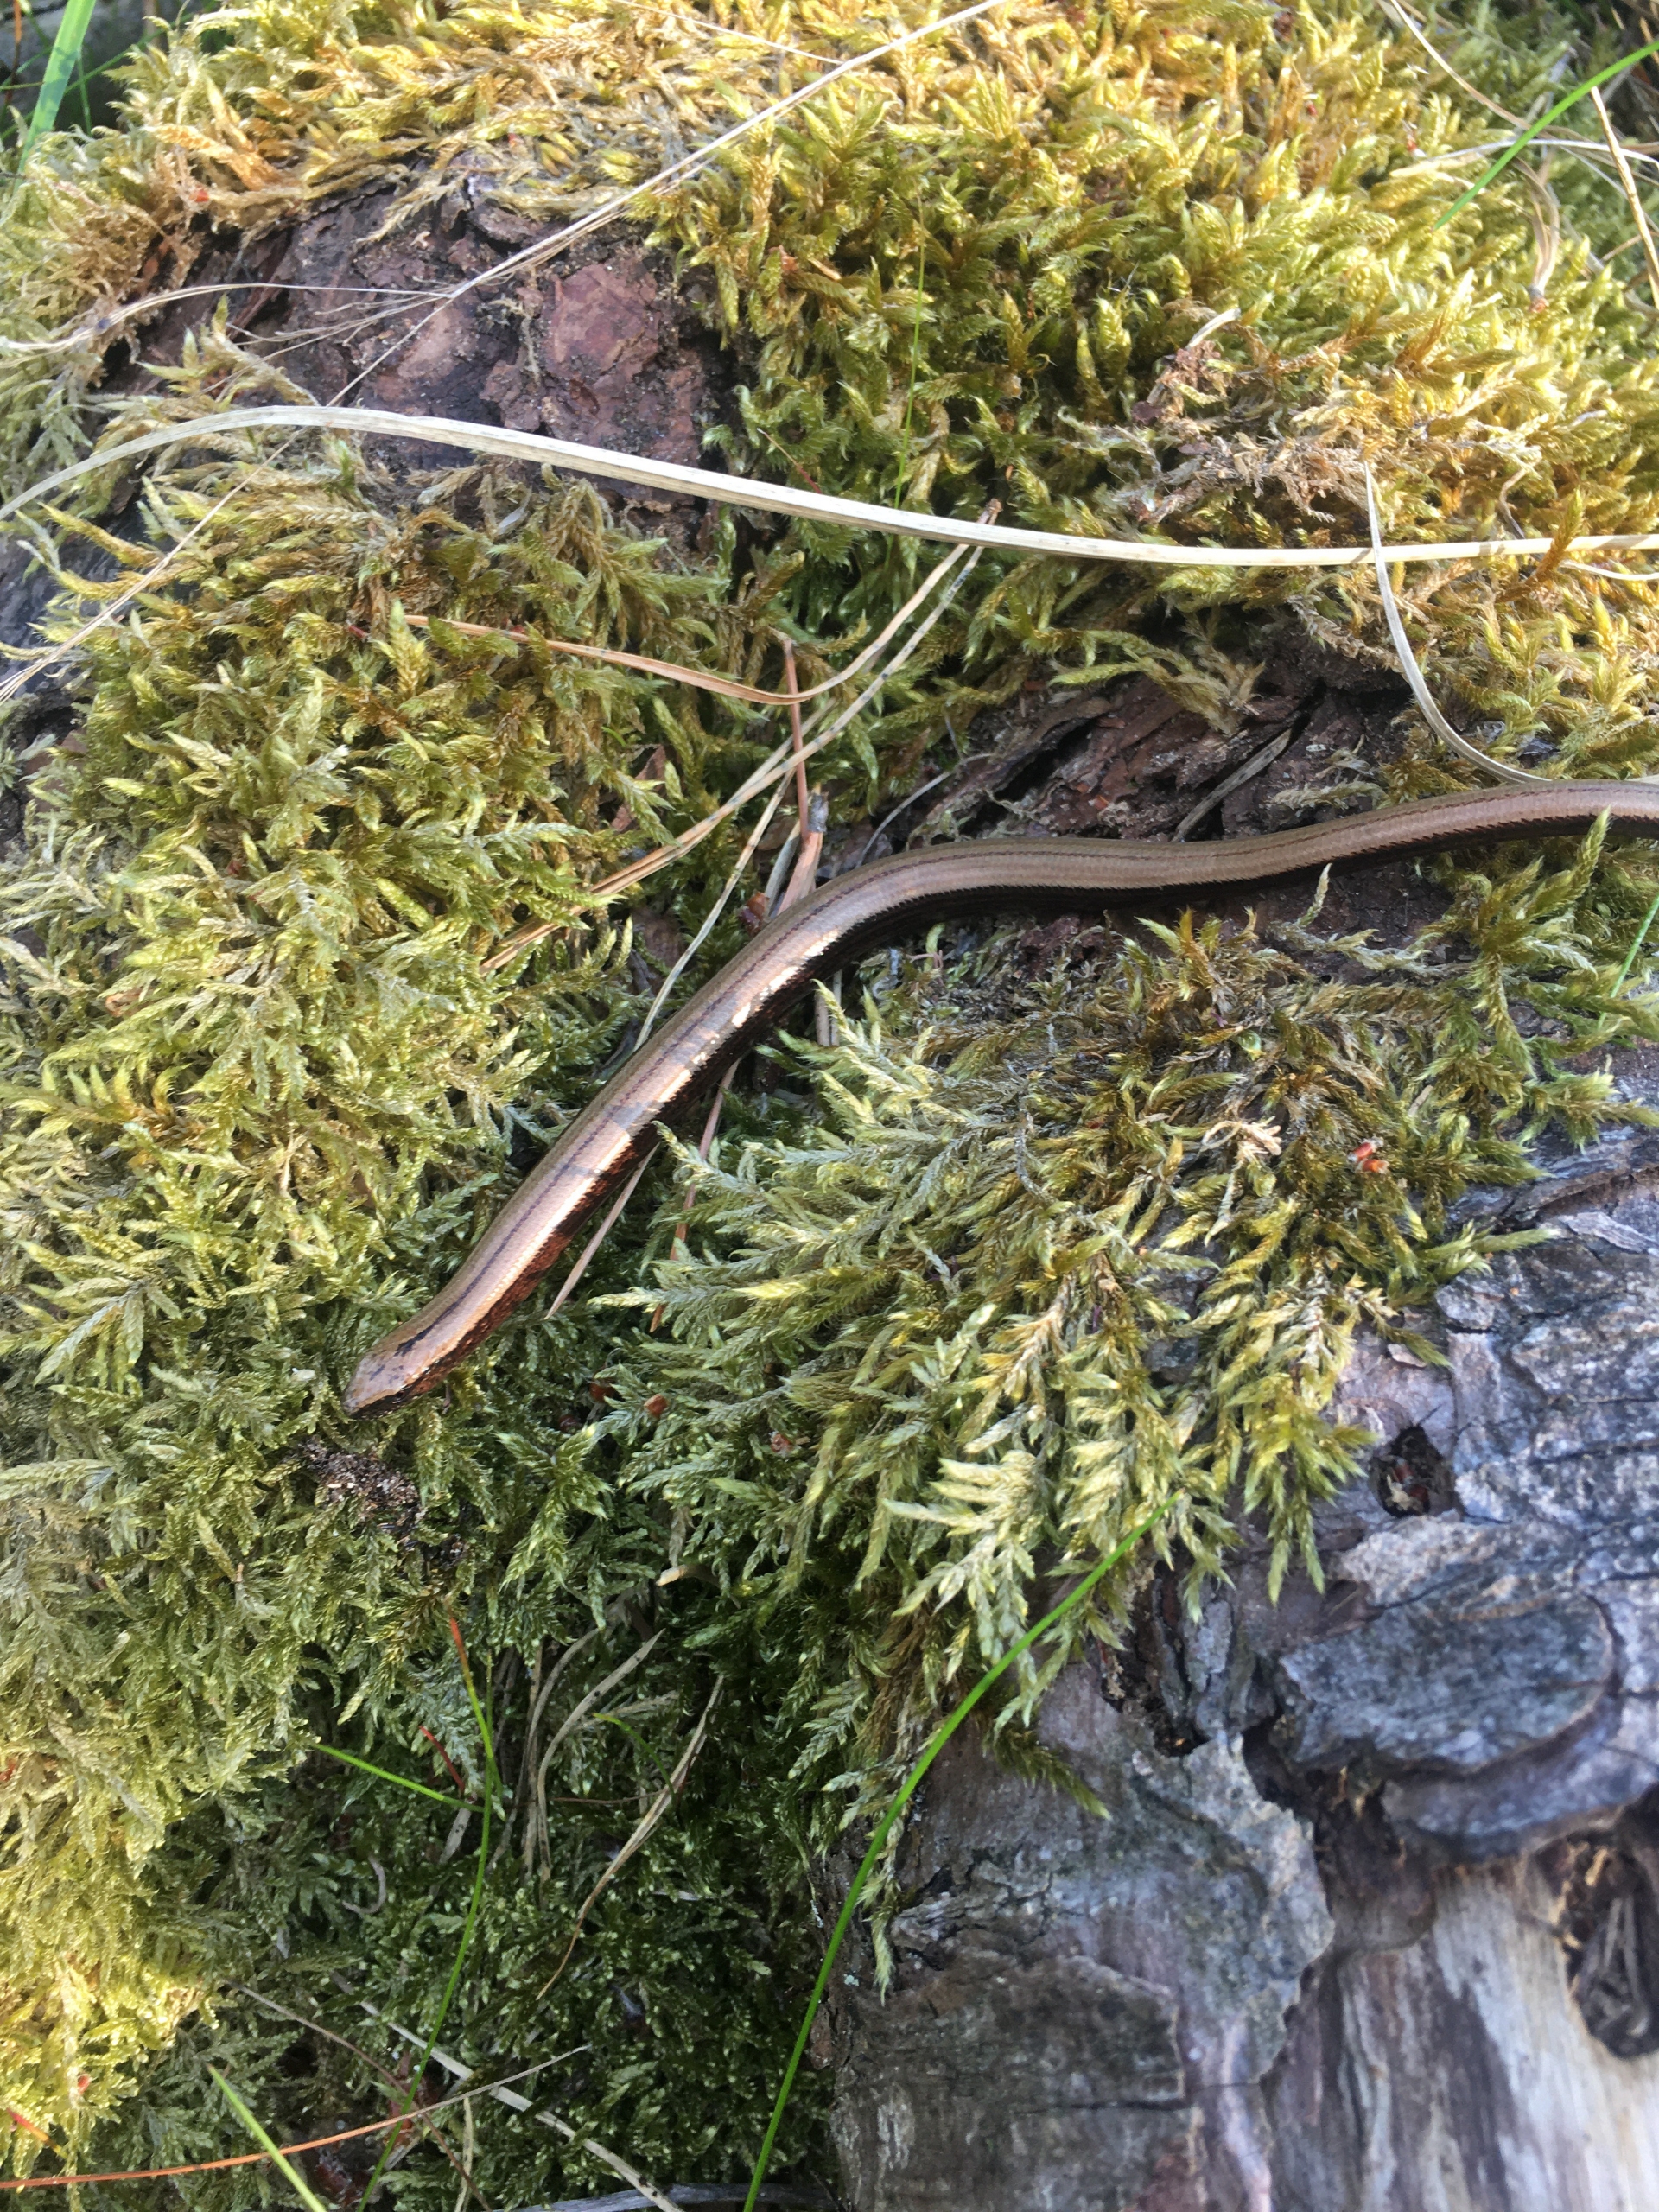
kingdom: Animalia
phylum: Chordata
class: Squamata
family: Anguidae
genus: Anguis
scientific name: Anguis fragilis
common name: Stålorm
